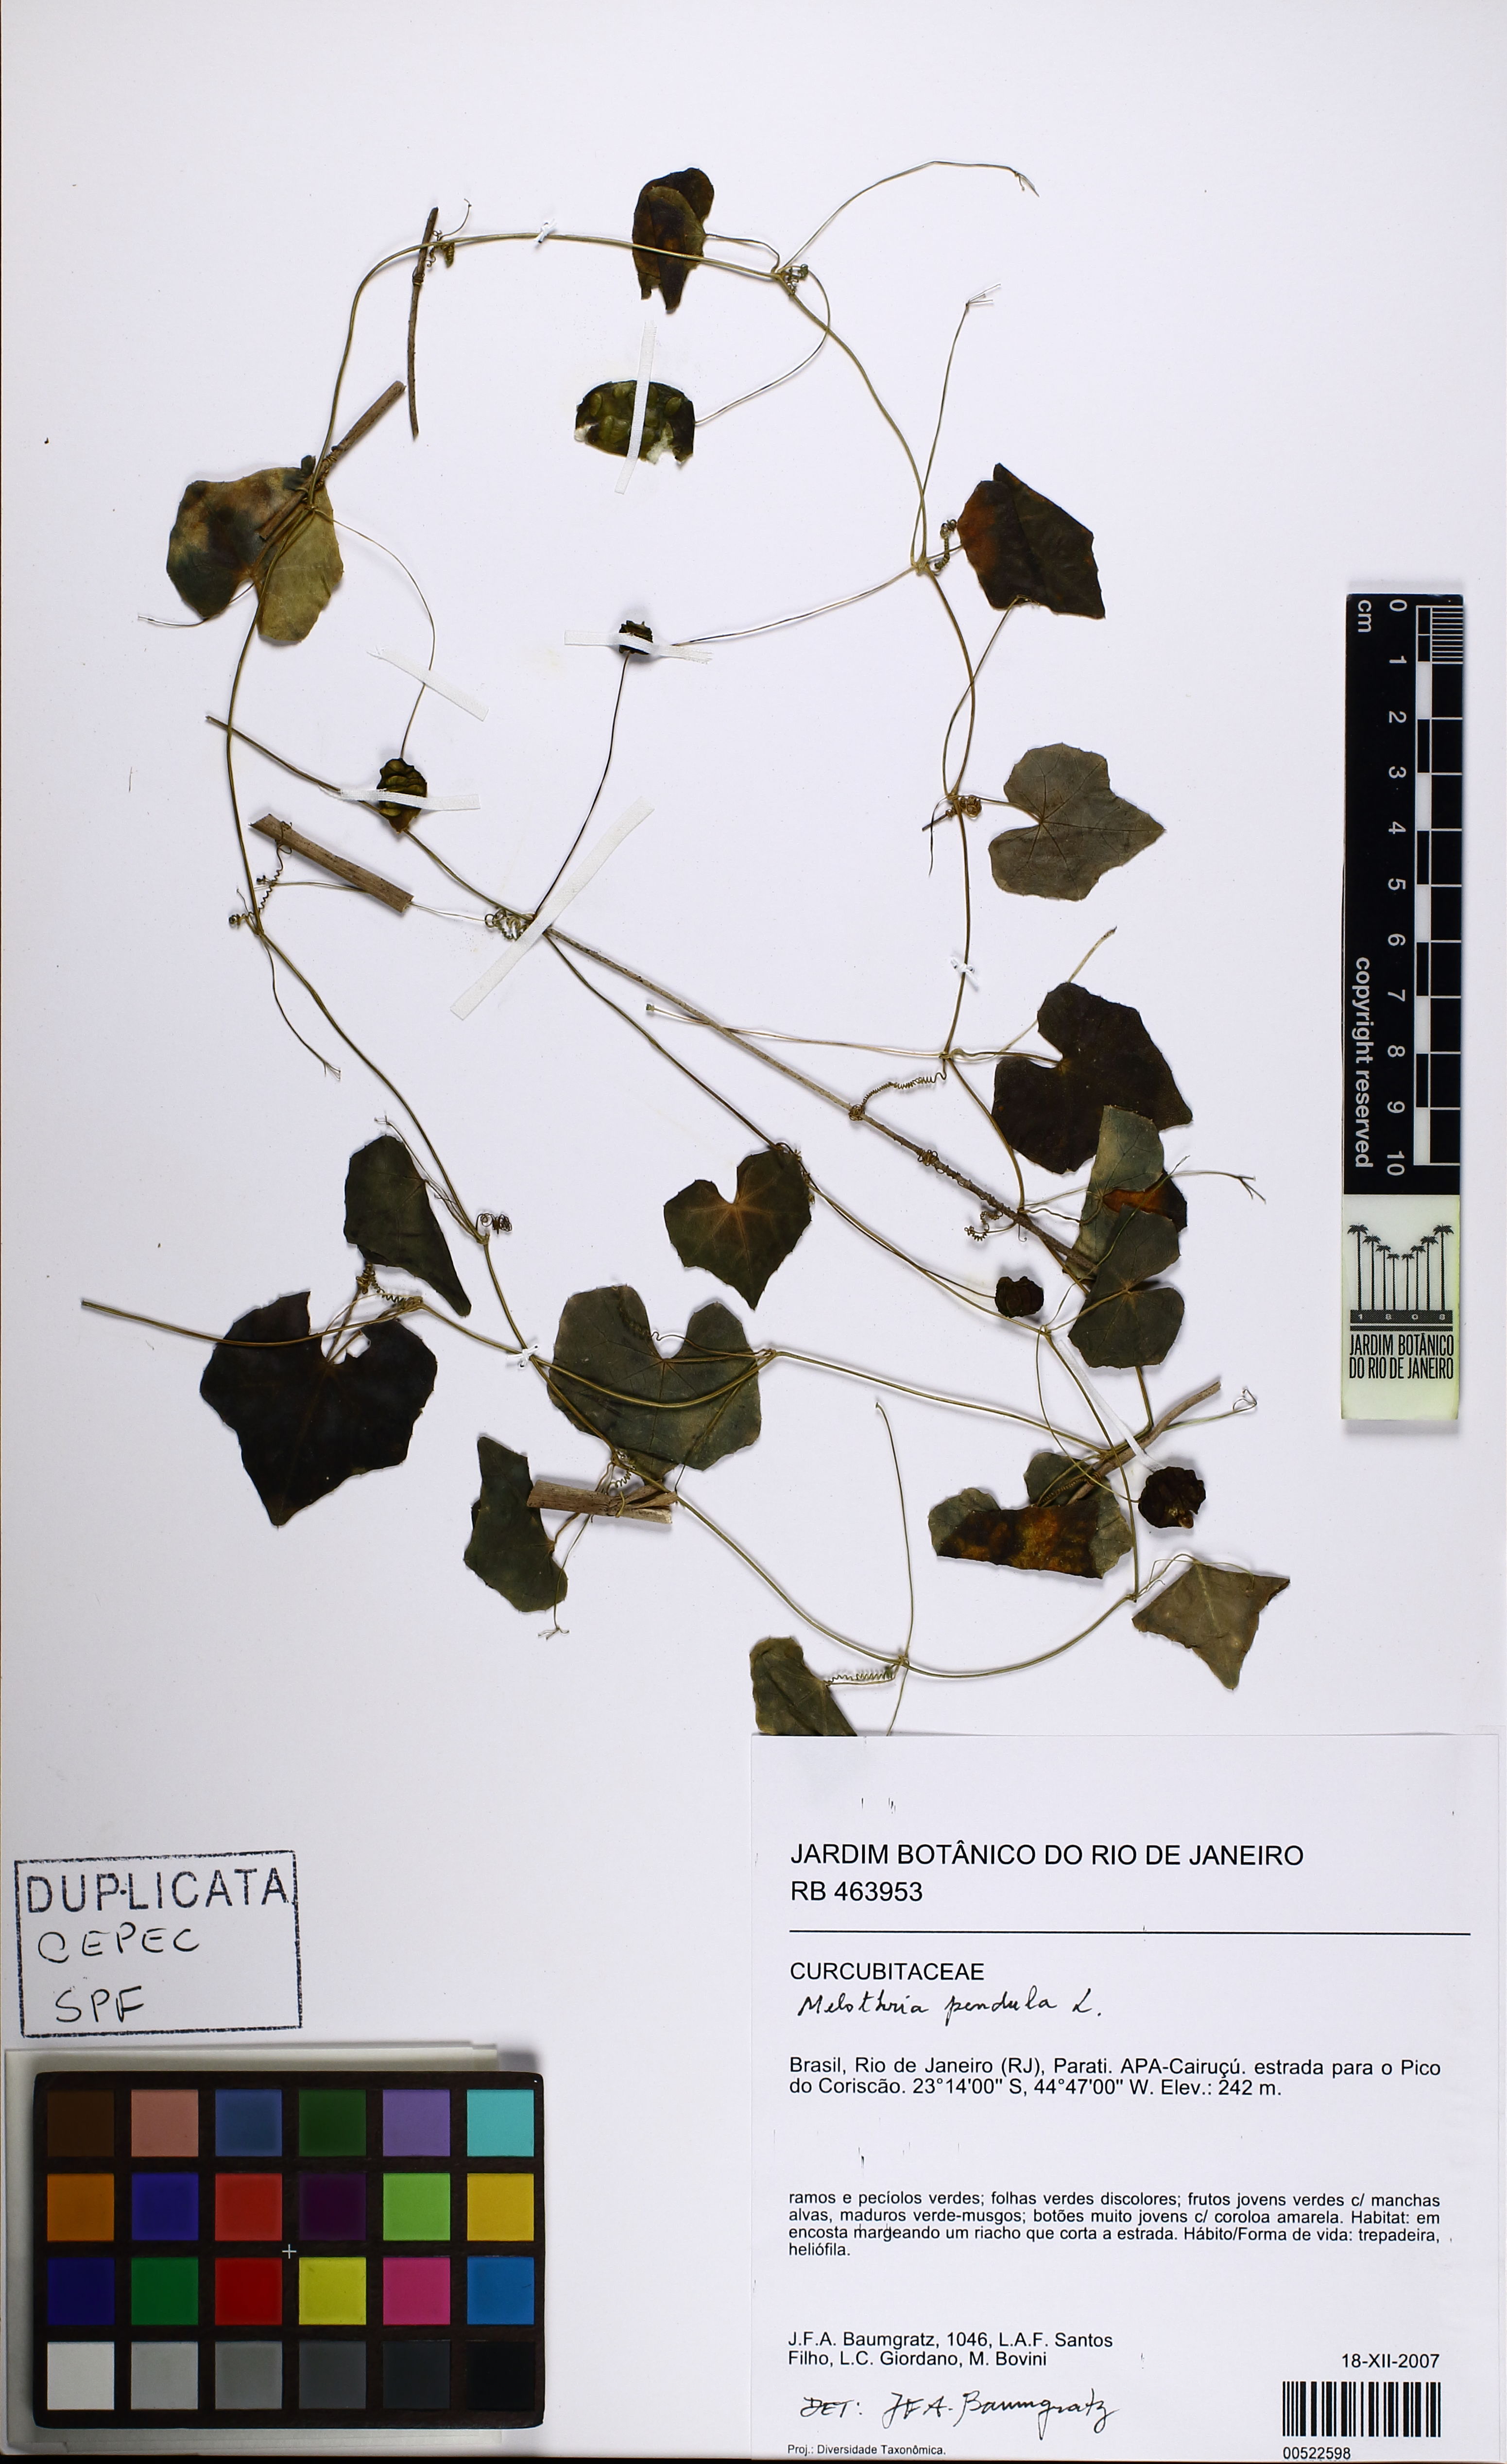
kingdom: Plantae
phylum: Tracheophyta
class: Magnoliopsida
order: Cucurbitales
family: Cucurbitaceae
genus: Melothria
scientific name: Melothria pendula
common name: Creeping-cucumber
